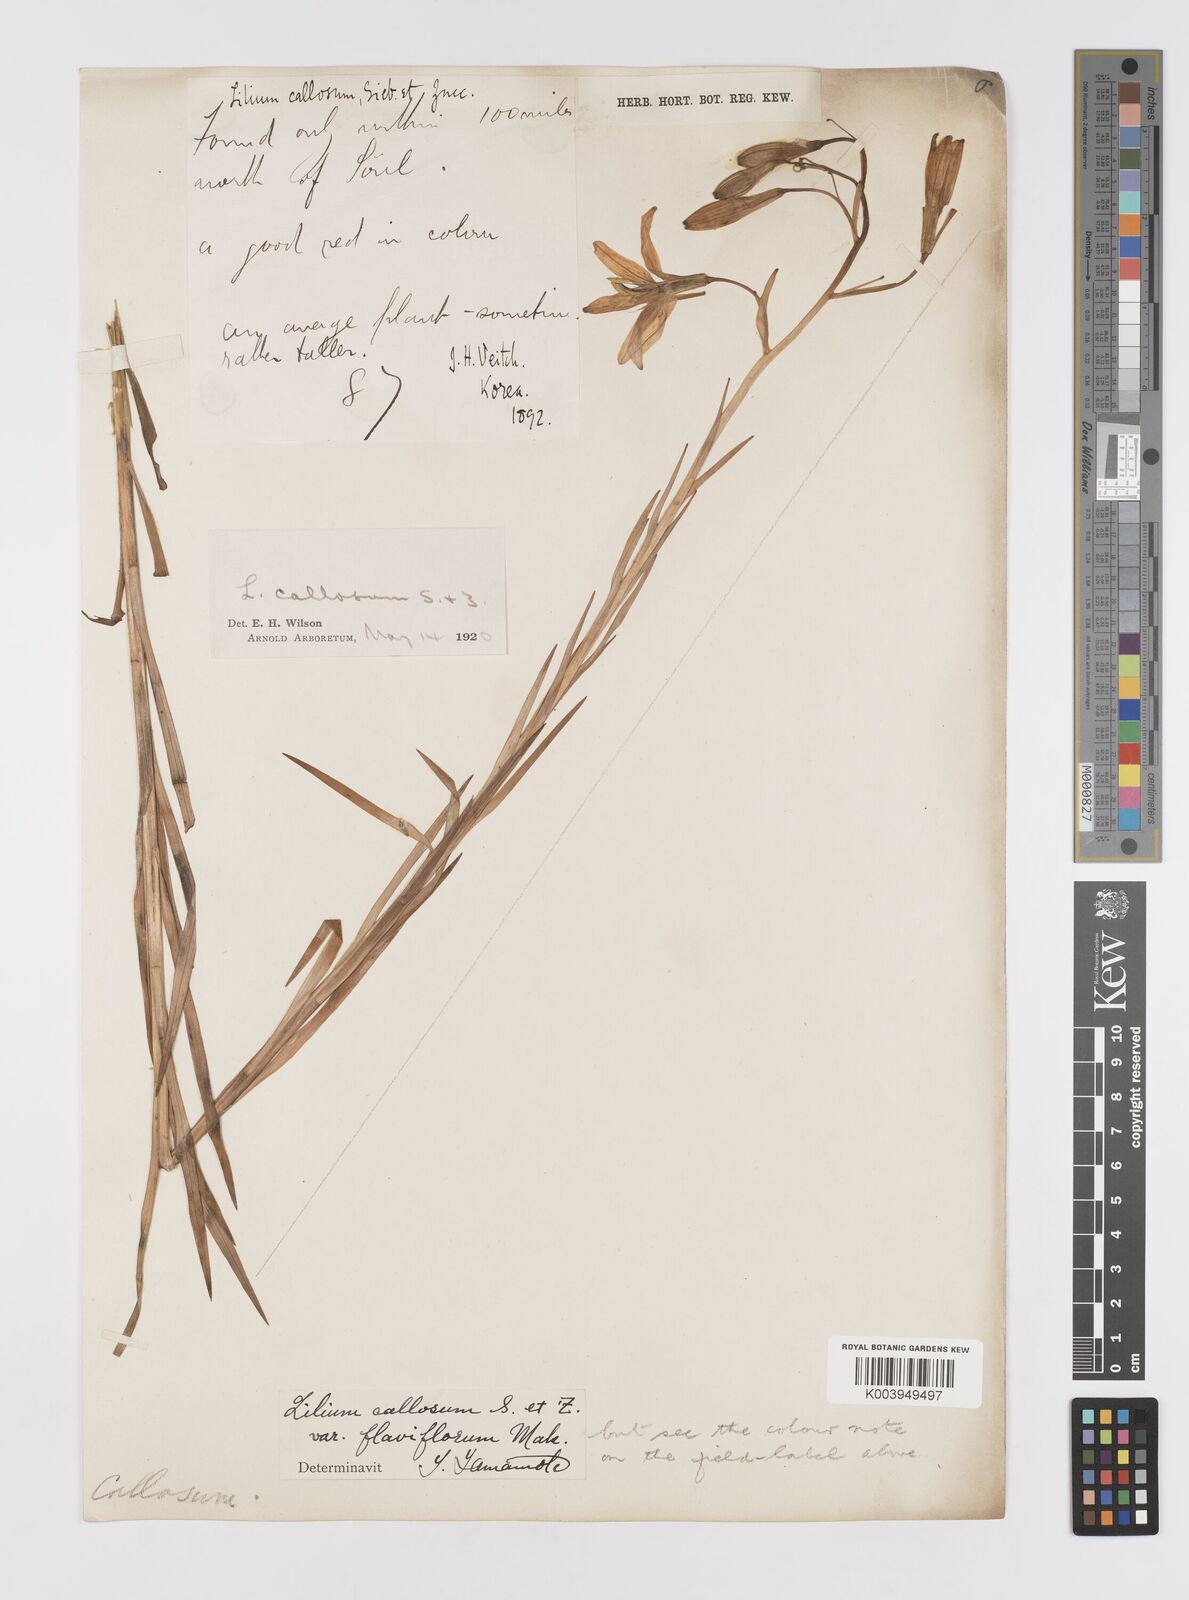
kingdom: Plantae
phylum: Tracheophyta
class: Liliopsida
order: Liliales
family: Liliaceae
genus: Lilium
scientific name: Lilium callosum
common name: Slim-stem lily
